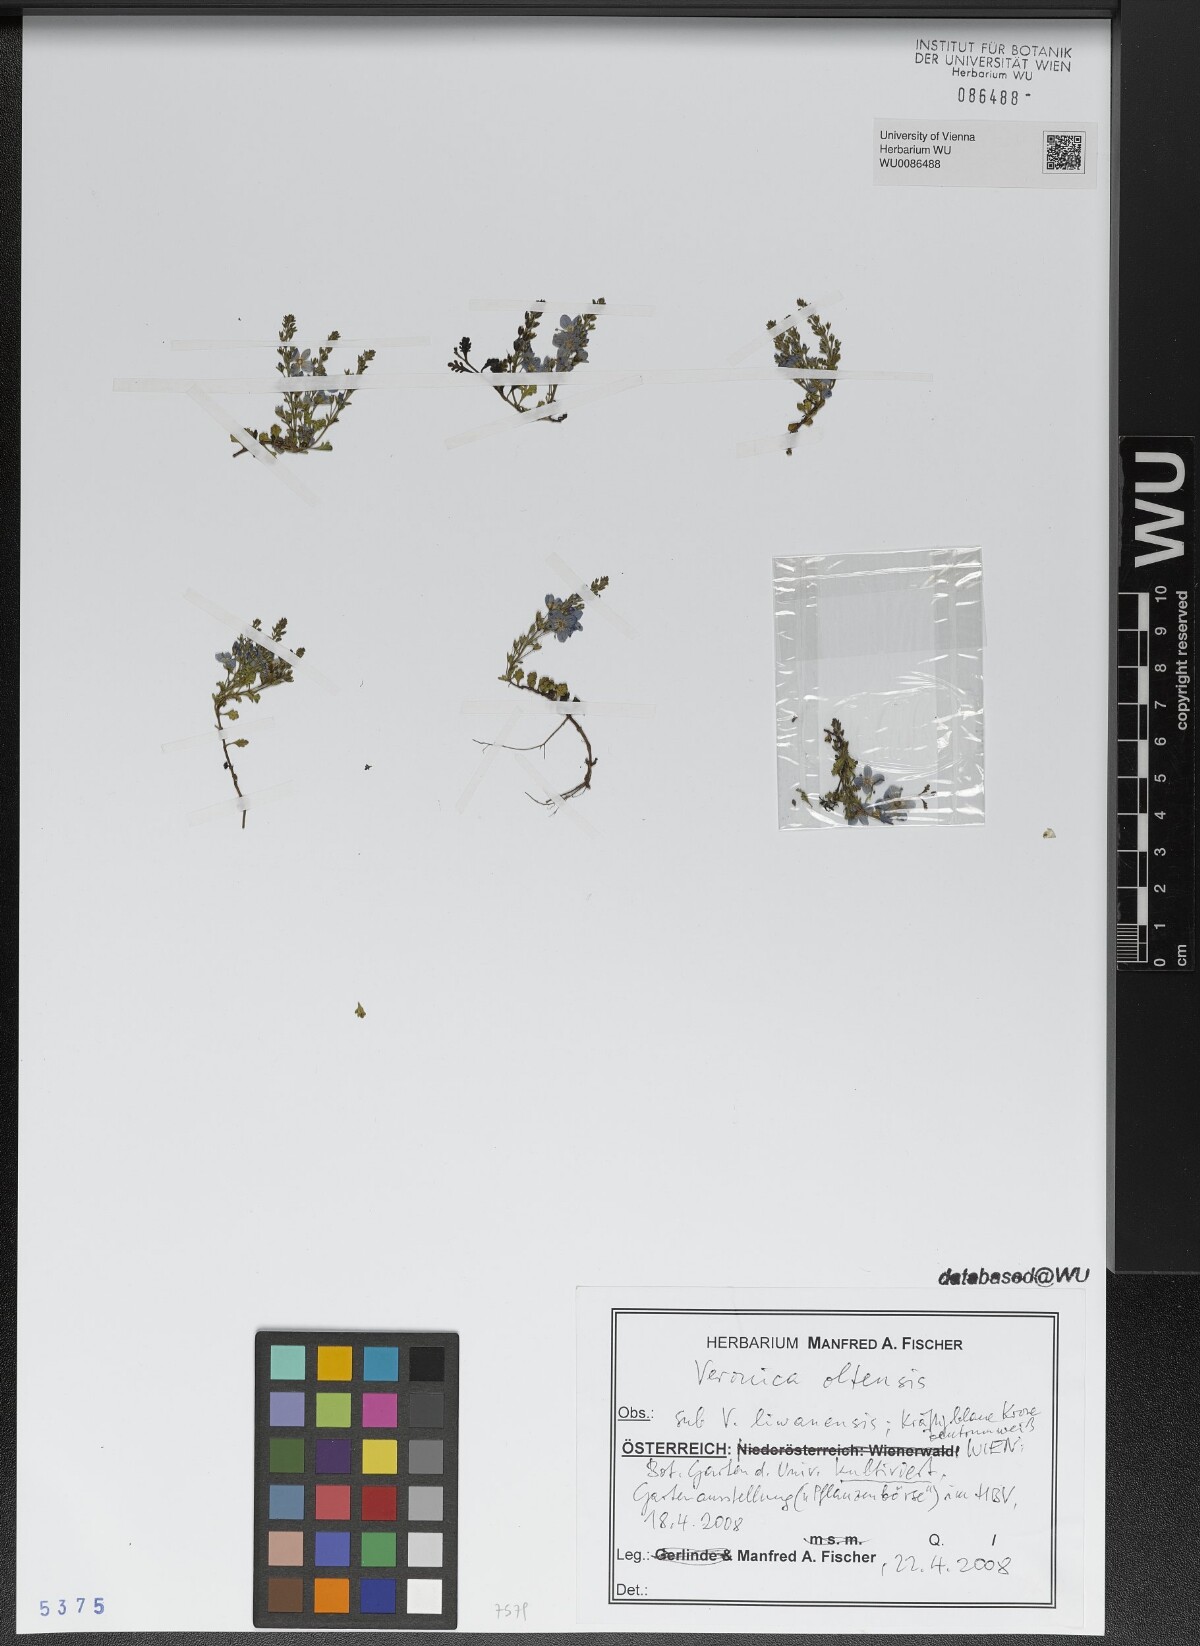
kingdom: Plantae
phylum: Tracheophyta
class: Magnoliopsida
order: Lamiales
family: Plantaginaceae
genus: Veronica
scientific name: Veronica oltensis
